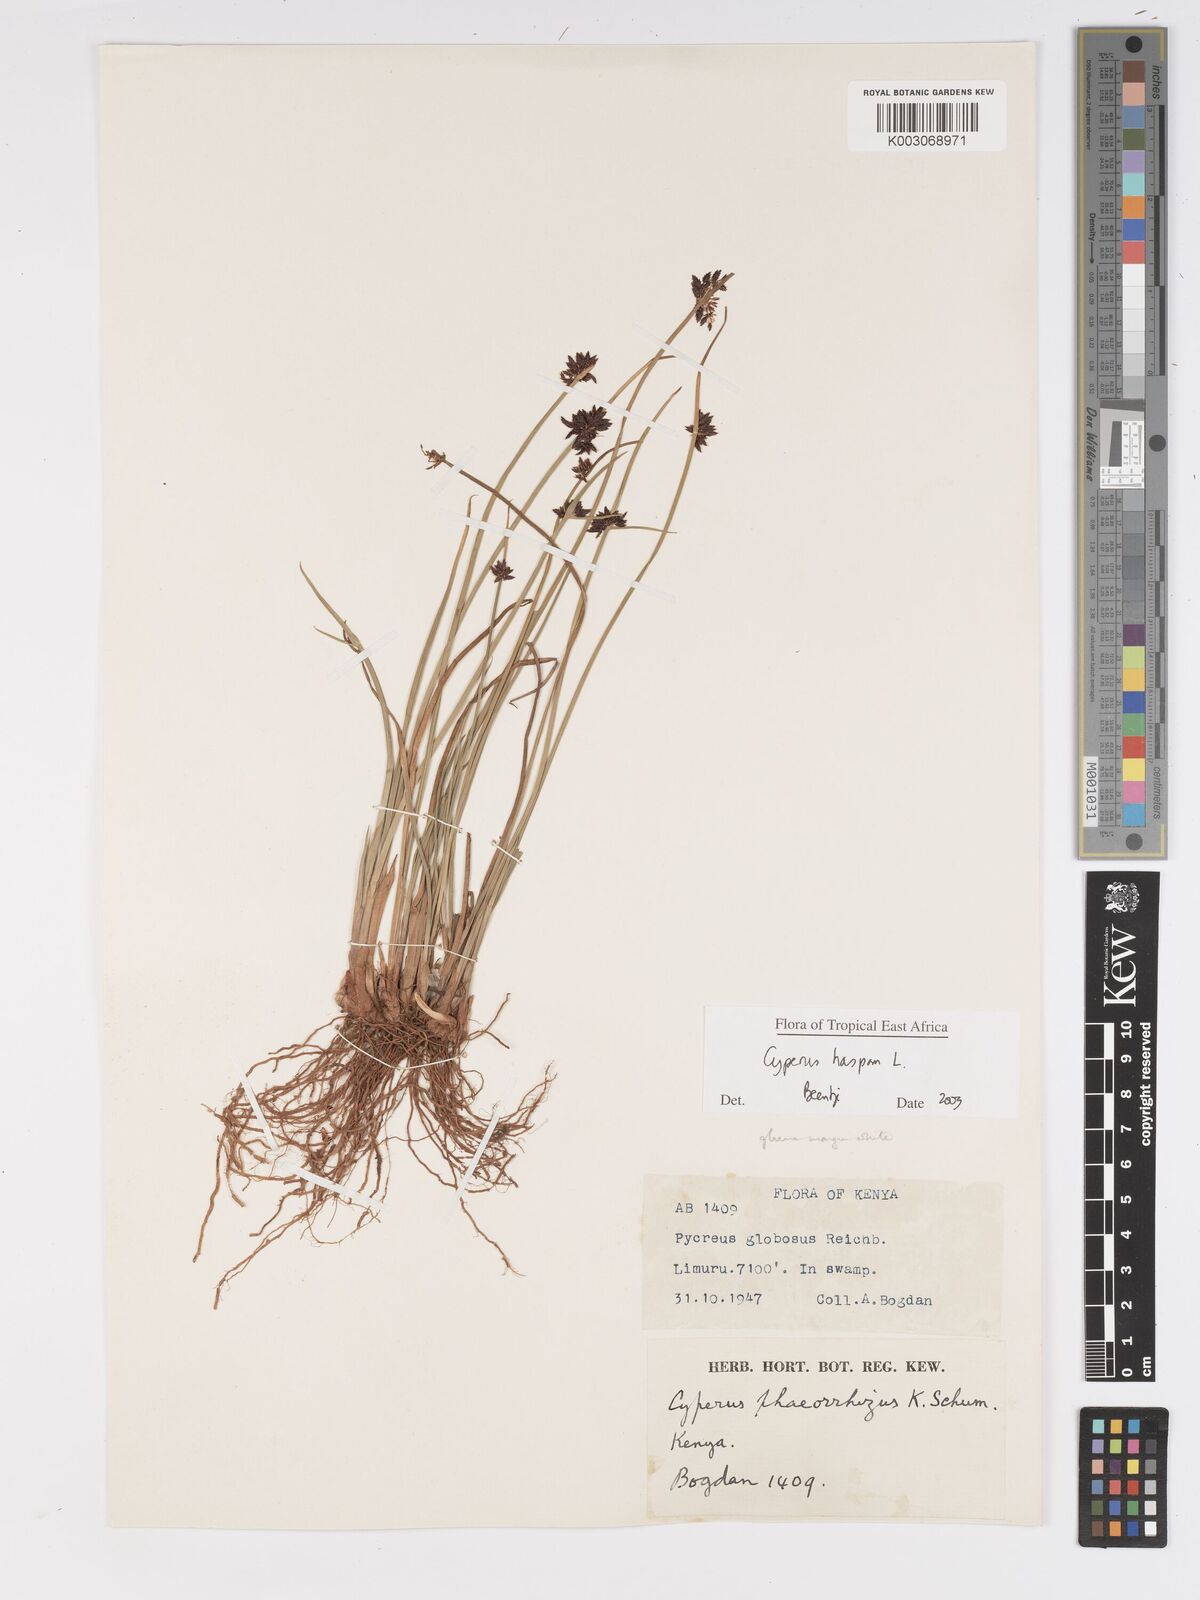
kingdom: Plantae
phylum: Tracheophyta
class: Liliopsida
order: Poales
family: Cyperaceae
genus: Cyperus
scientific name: Cyperus haspan
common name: Haspan flatsedge
